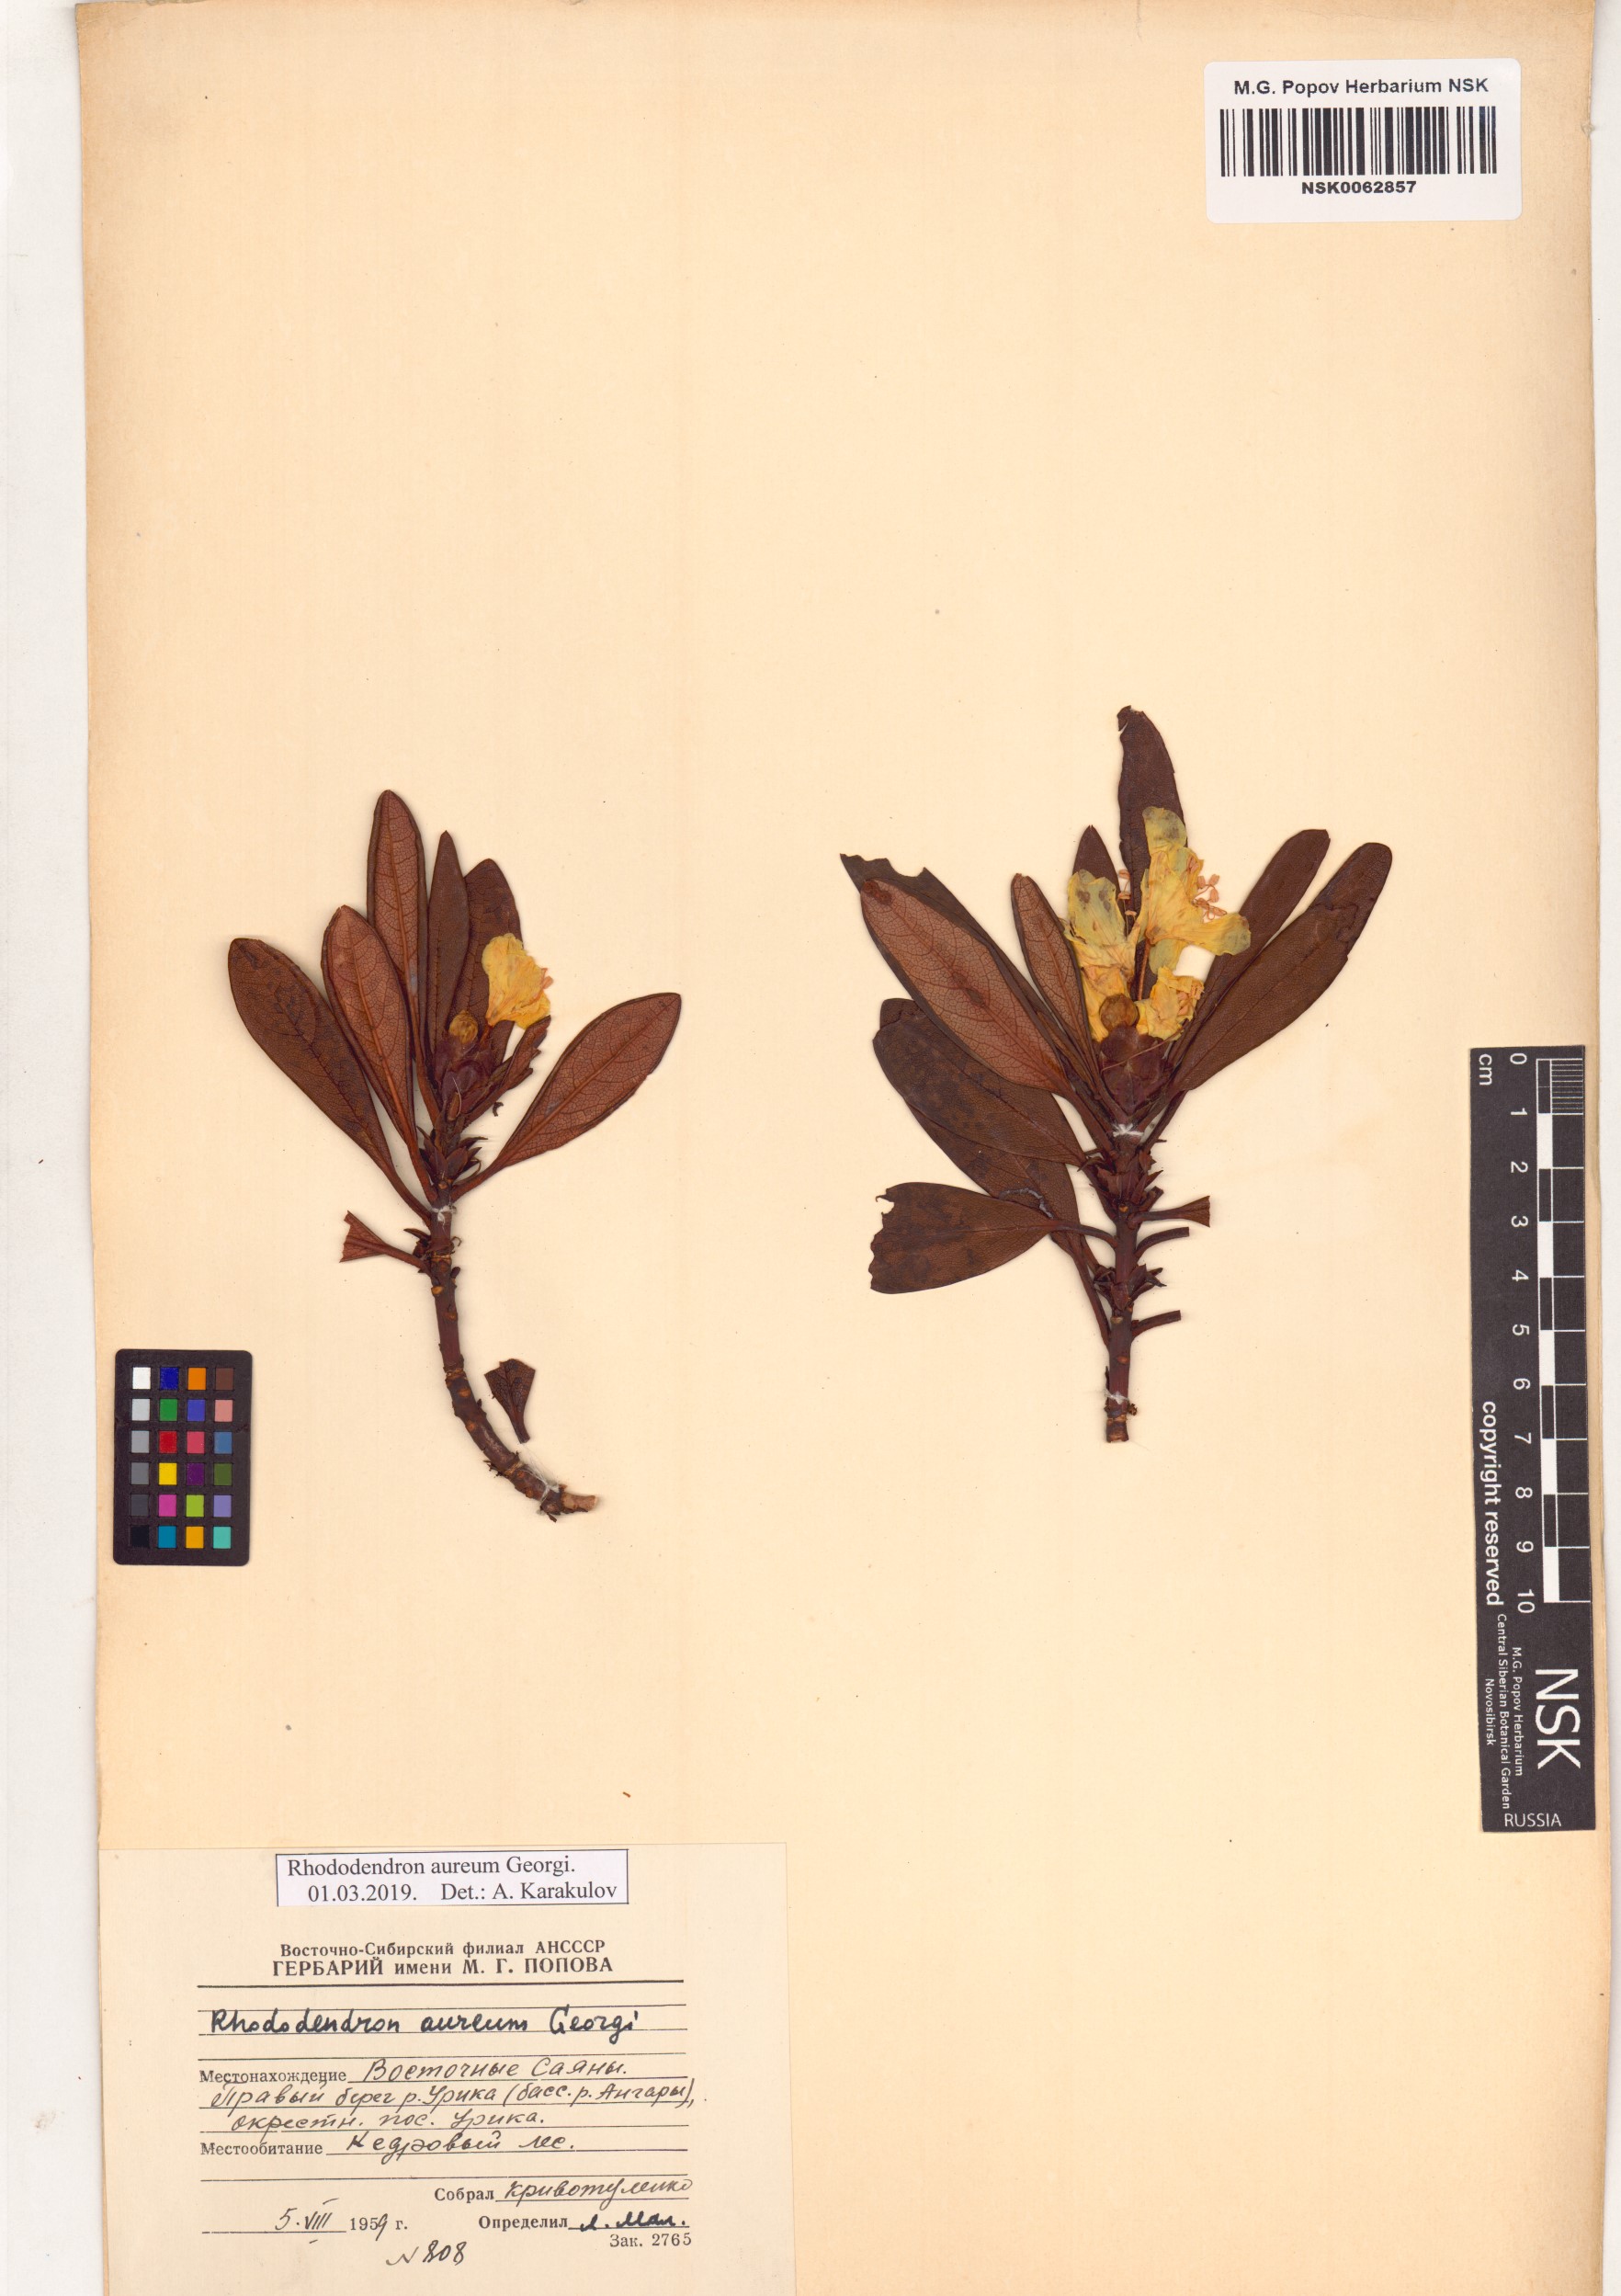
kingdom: Plantae
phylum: Tracheophyta
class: Magnoliopsida
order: Ericales
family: Ericaceae
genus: Rhododendron
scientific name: Rhododendron aureum
